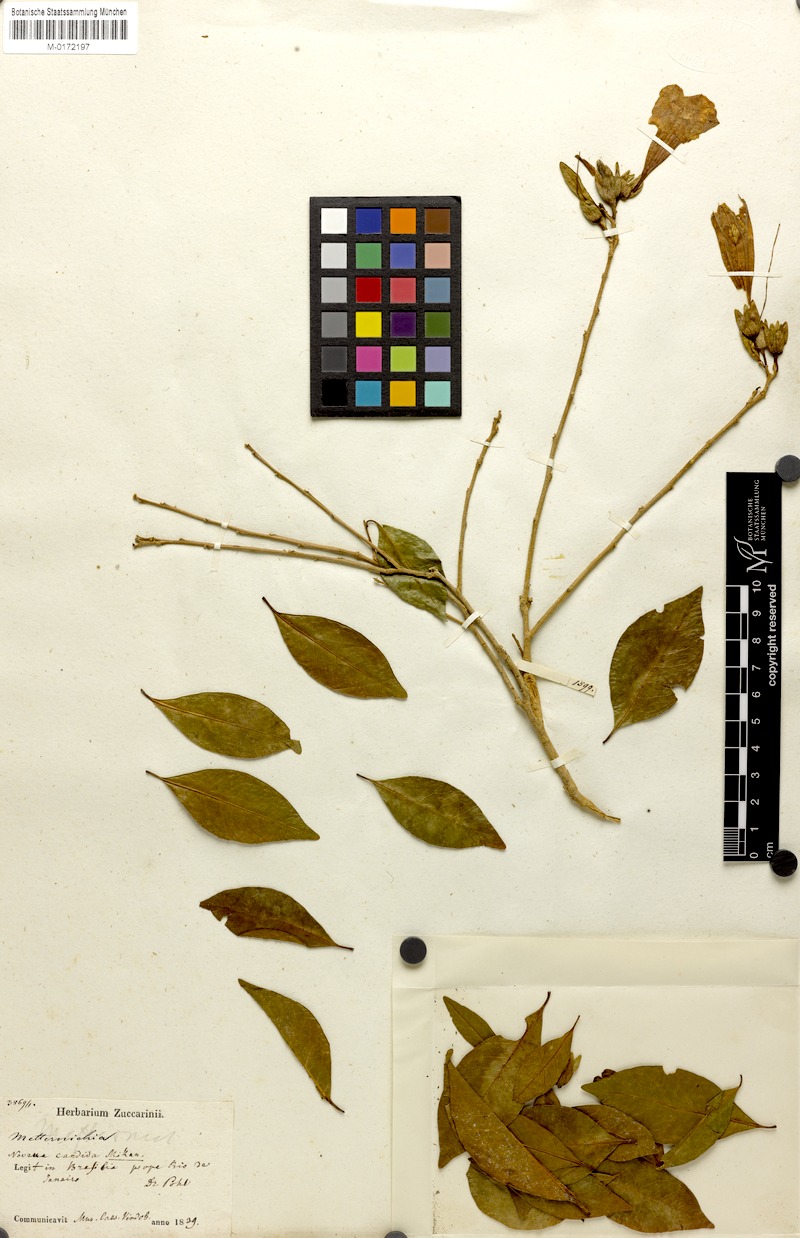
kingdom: Plantae
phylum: Tracheophyta
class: Magnoliopsida
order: Solanales
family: Solanaceae
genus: Metternichia
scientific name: Metternichia princeps
